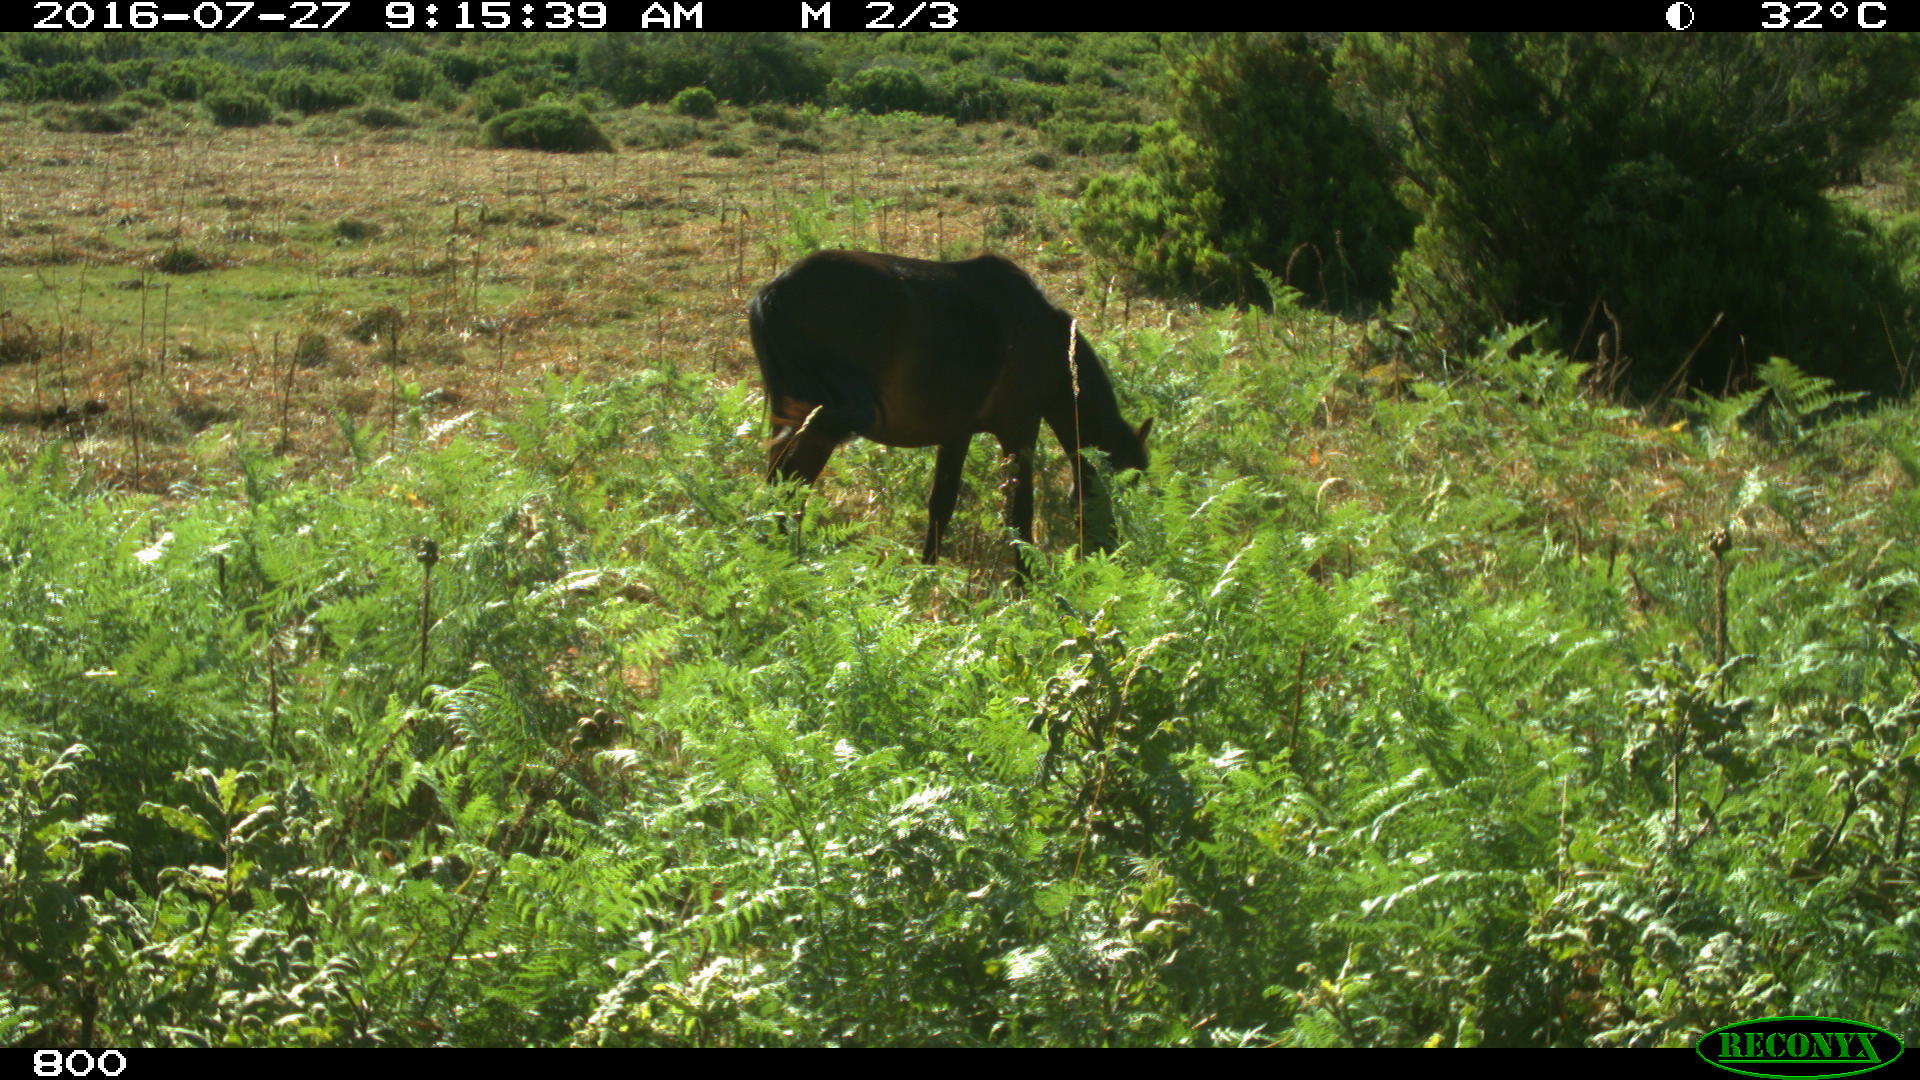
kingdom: Animalia
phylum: Chordata
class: Mammalia
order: Perissodactyla
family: Equidae
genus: Equus
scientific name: Equus caballus
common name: Horse
